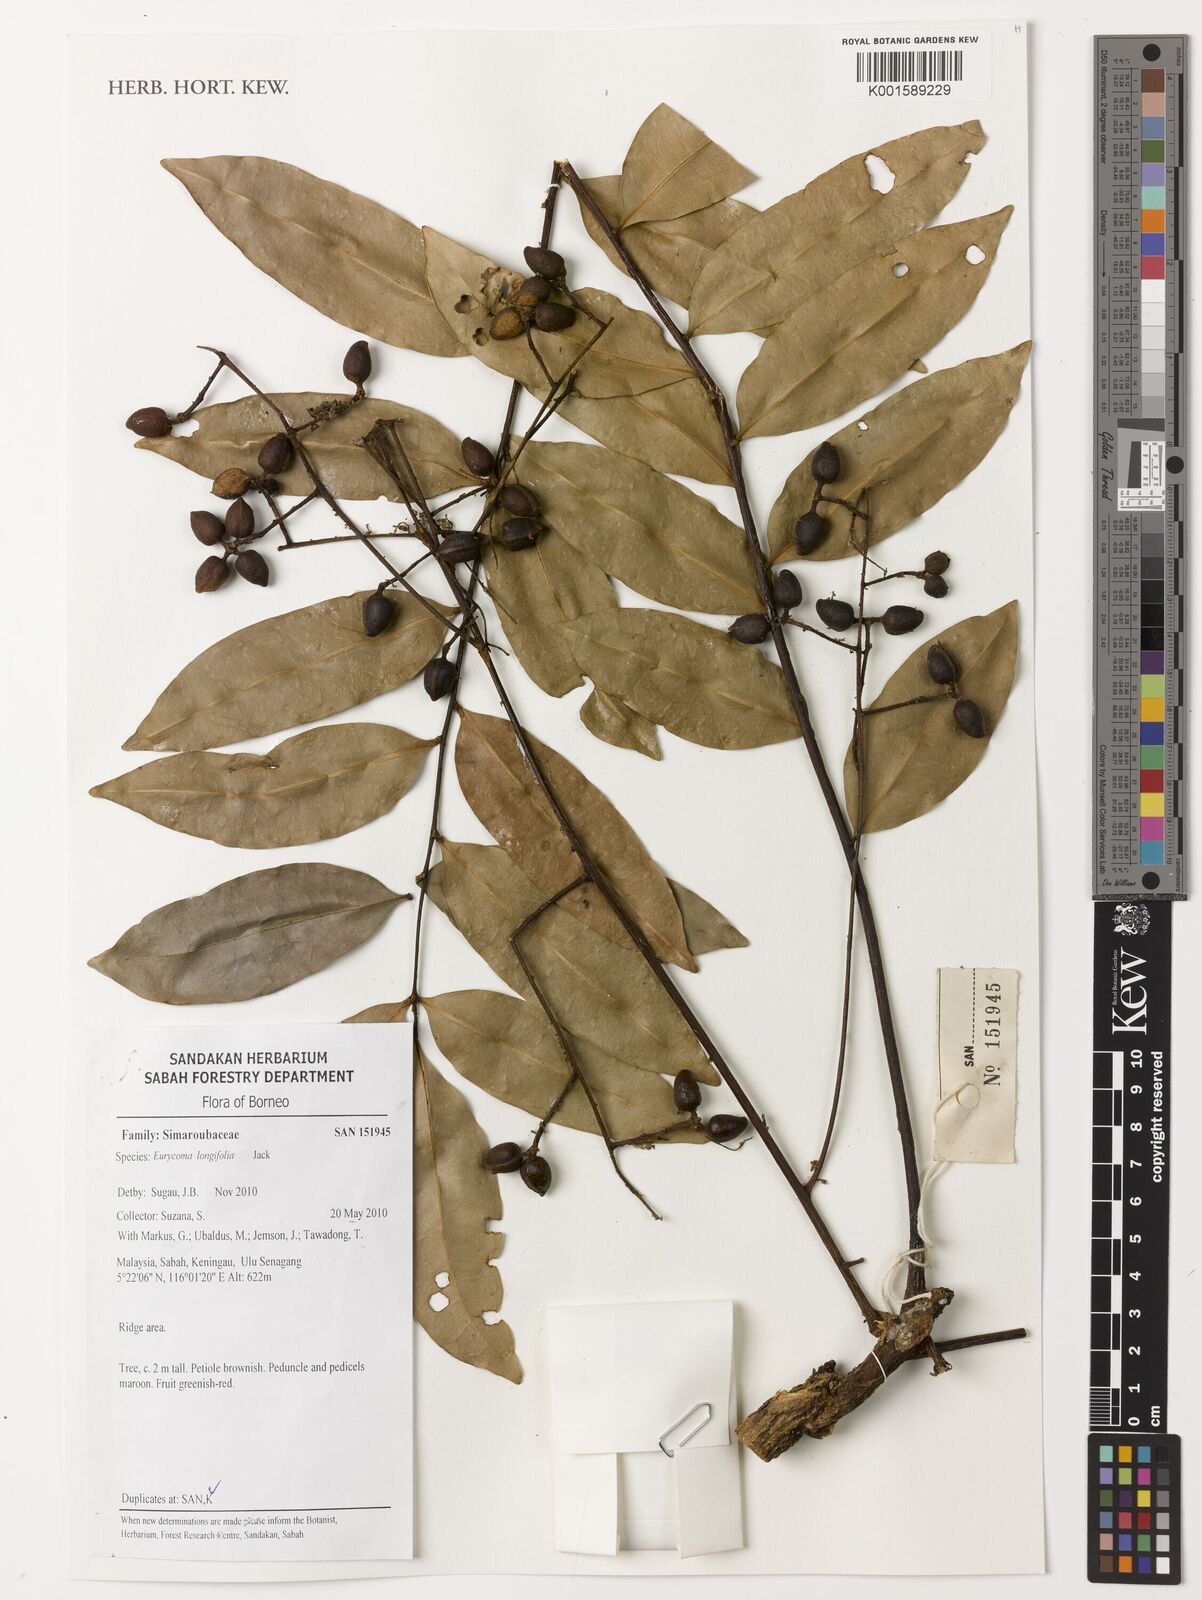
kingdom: Plantae
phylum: Tracheophyta
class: Magnoliopsida
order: Sapindales
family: Simaroubaceae
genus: Eurycoma
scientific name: Eurycoma longifolia
